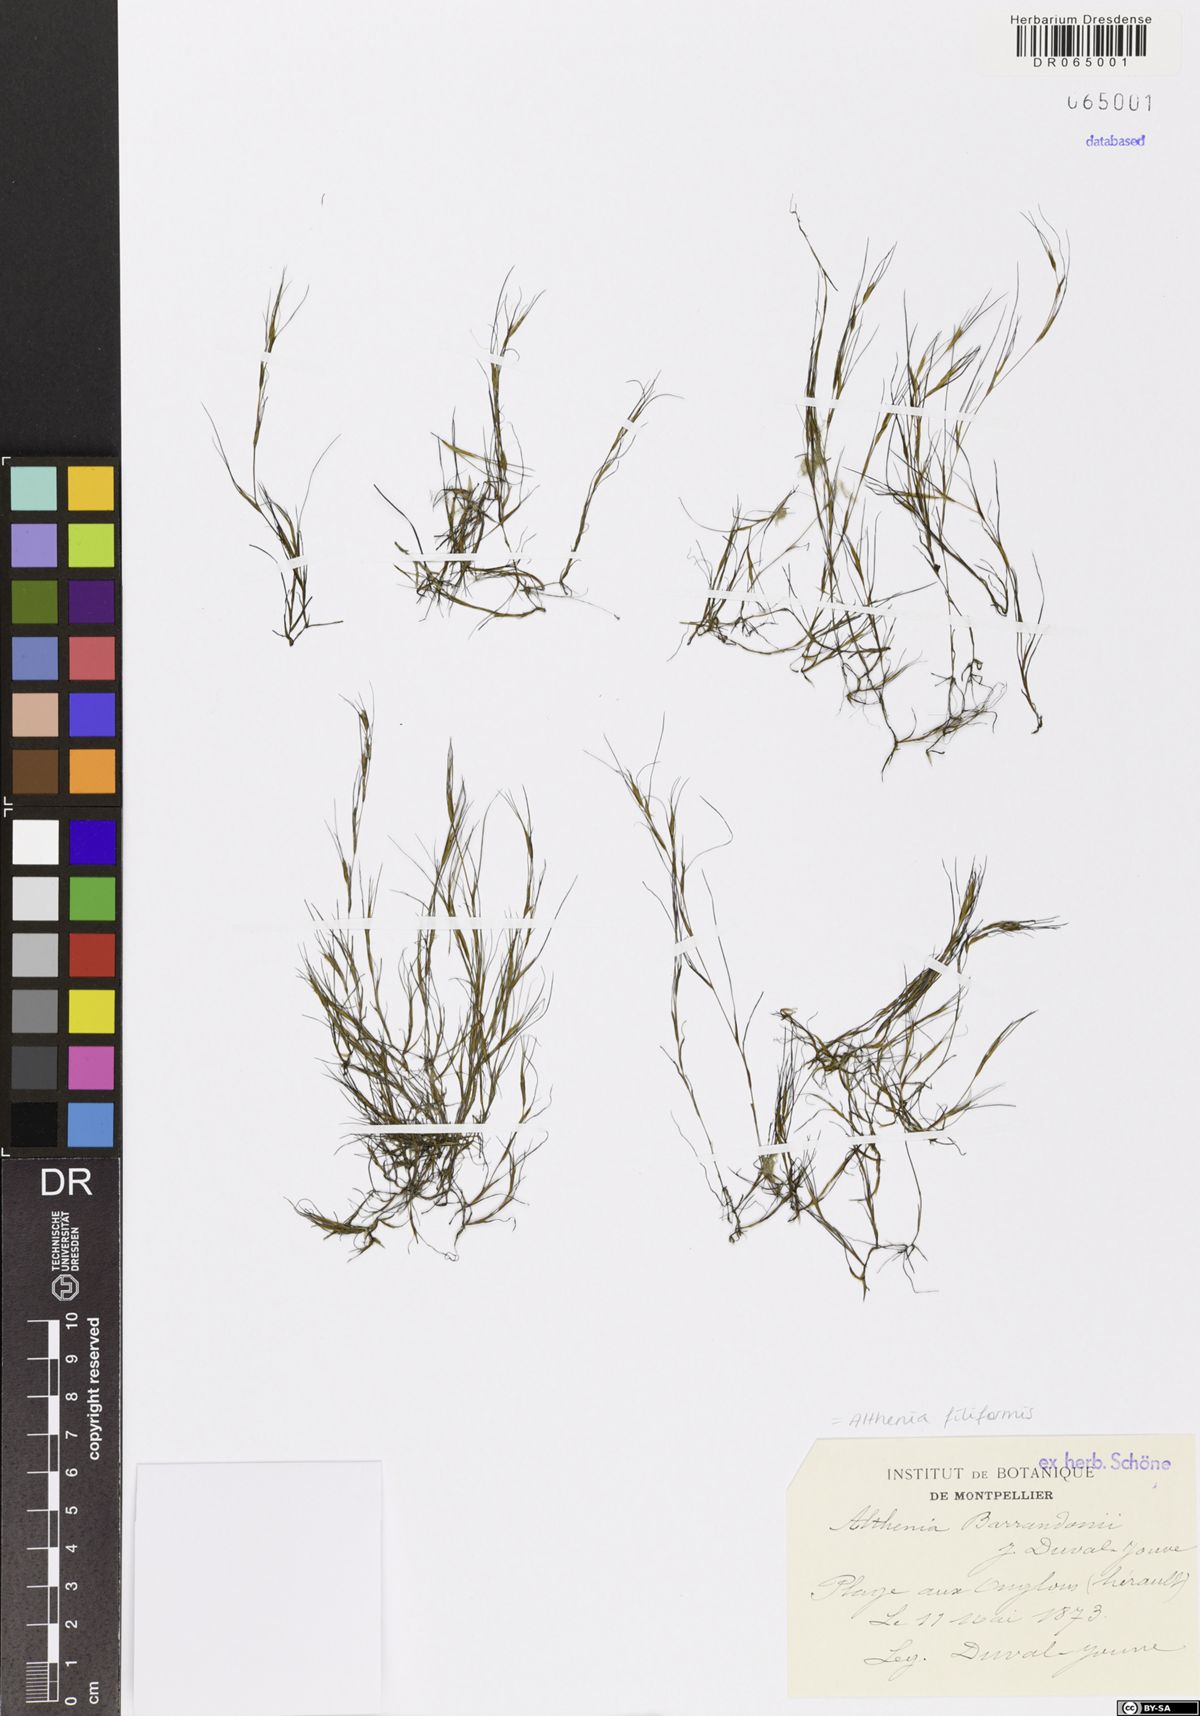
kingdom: Plantae
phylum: Tracheophyta
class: Liliopsida
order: Alismatales
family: Potamogetonaceae
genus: Althenia
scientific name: Althenia filiformis
